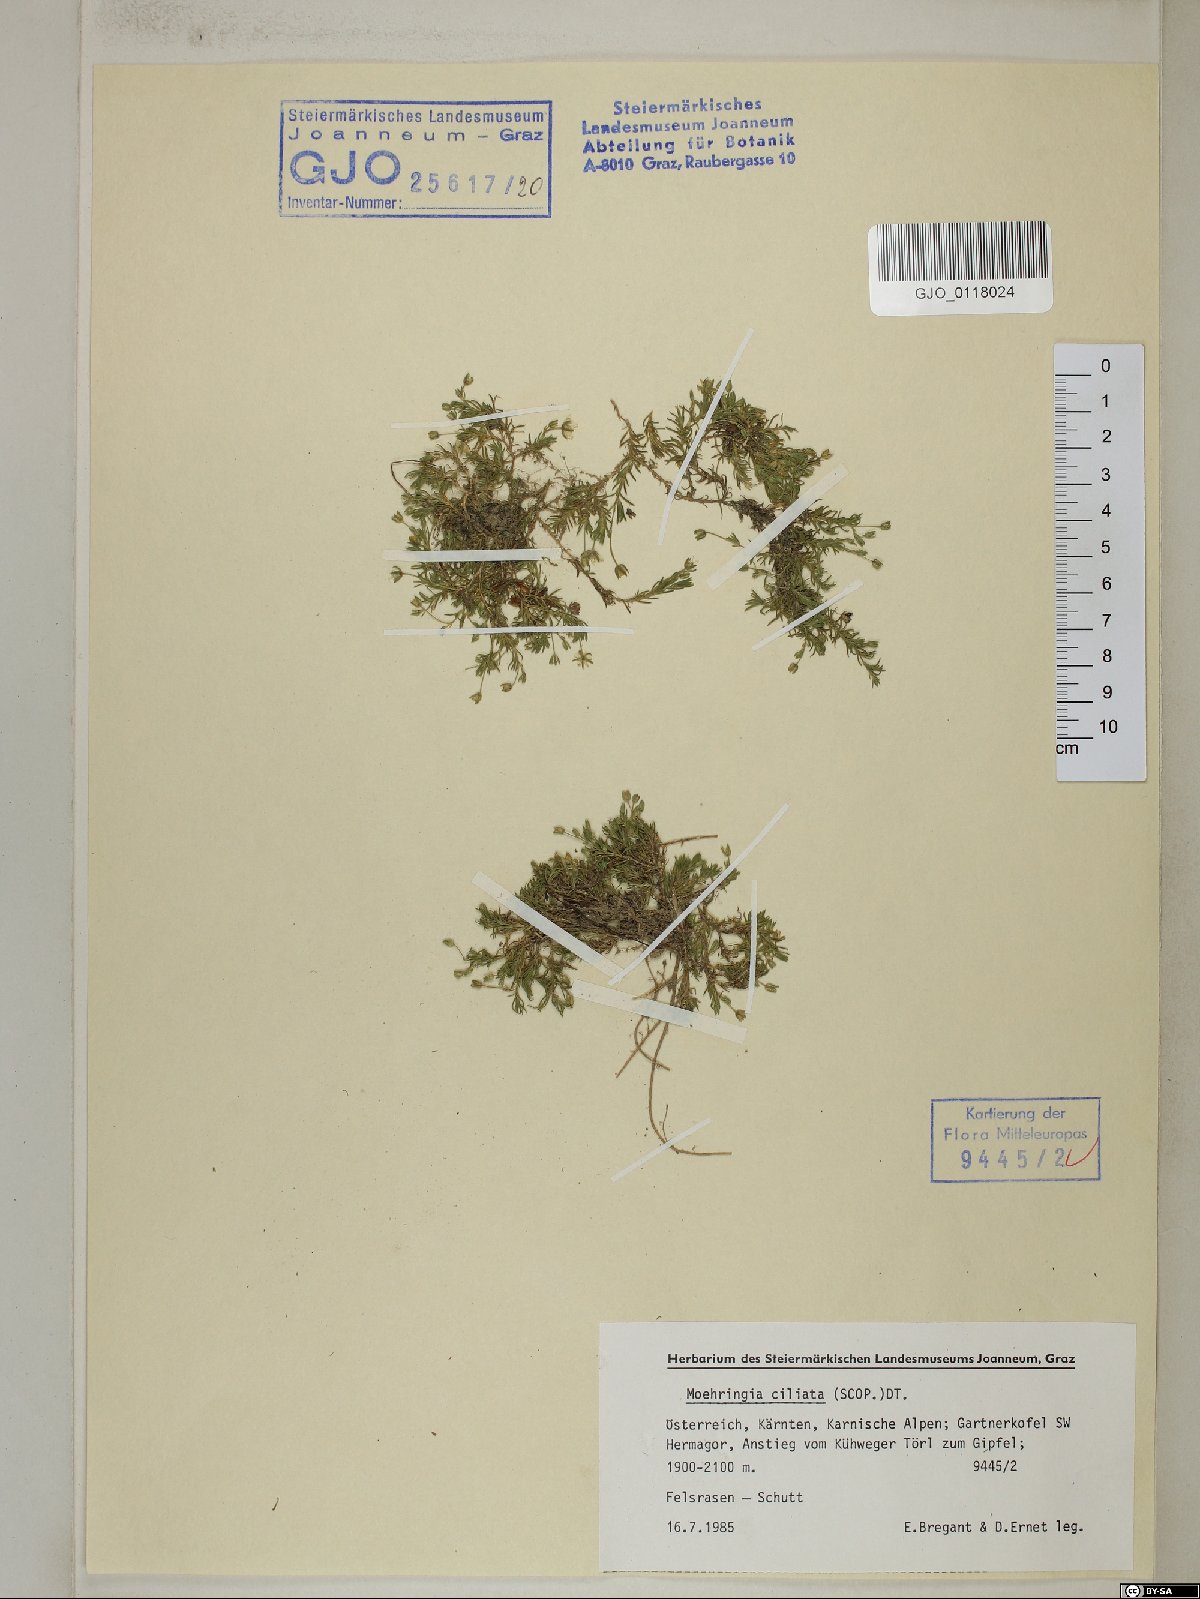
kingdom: Plantae
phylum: Tracheophyta
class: Magnoliopsida
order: Caryophyllales
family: Caryophyllaceae
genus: Moehringia
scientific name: Moehringia ciliata
